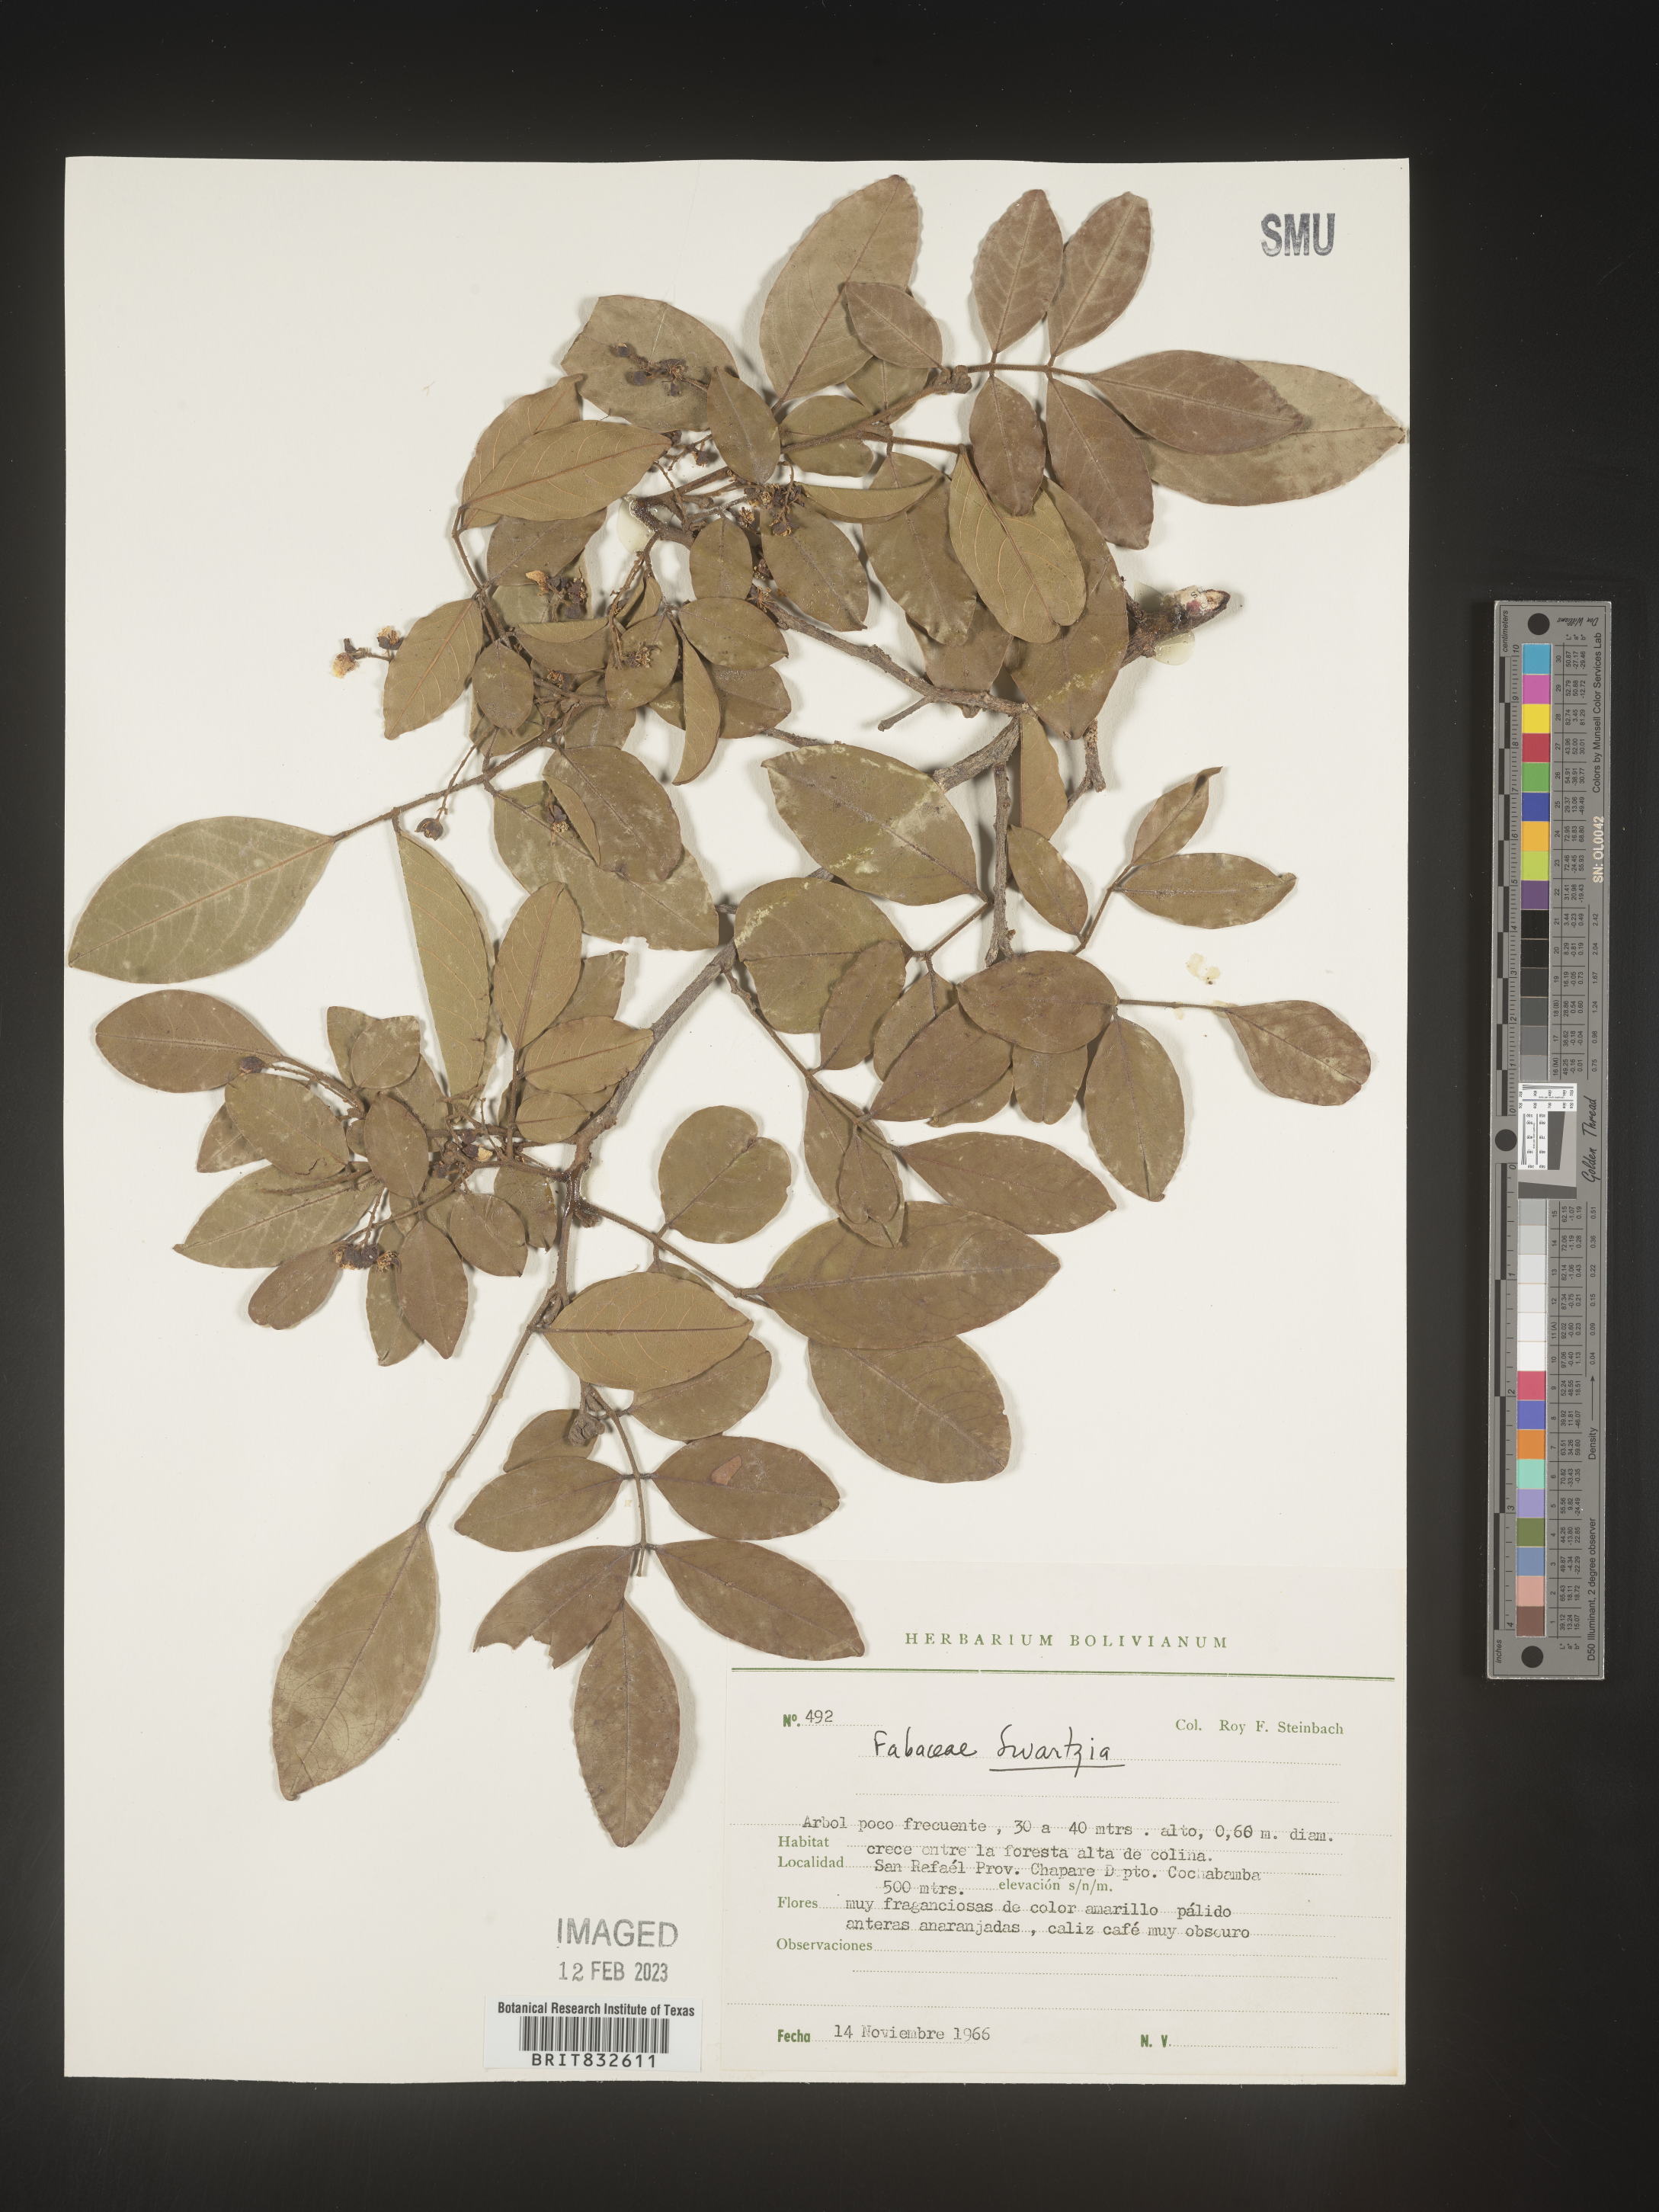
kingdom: Plantae
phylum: Tracheophyta
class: Magnoliopsida
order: Fabales
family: Fabaceae
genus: Swartzia
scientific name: Swartzia
